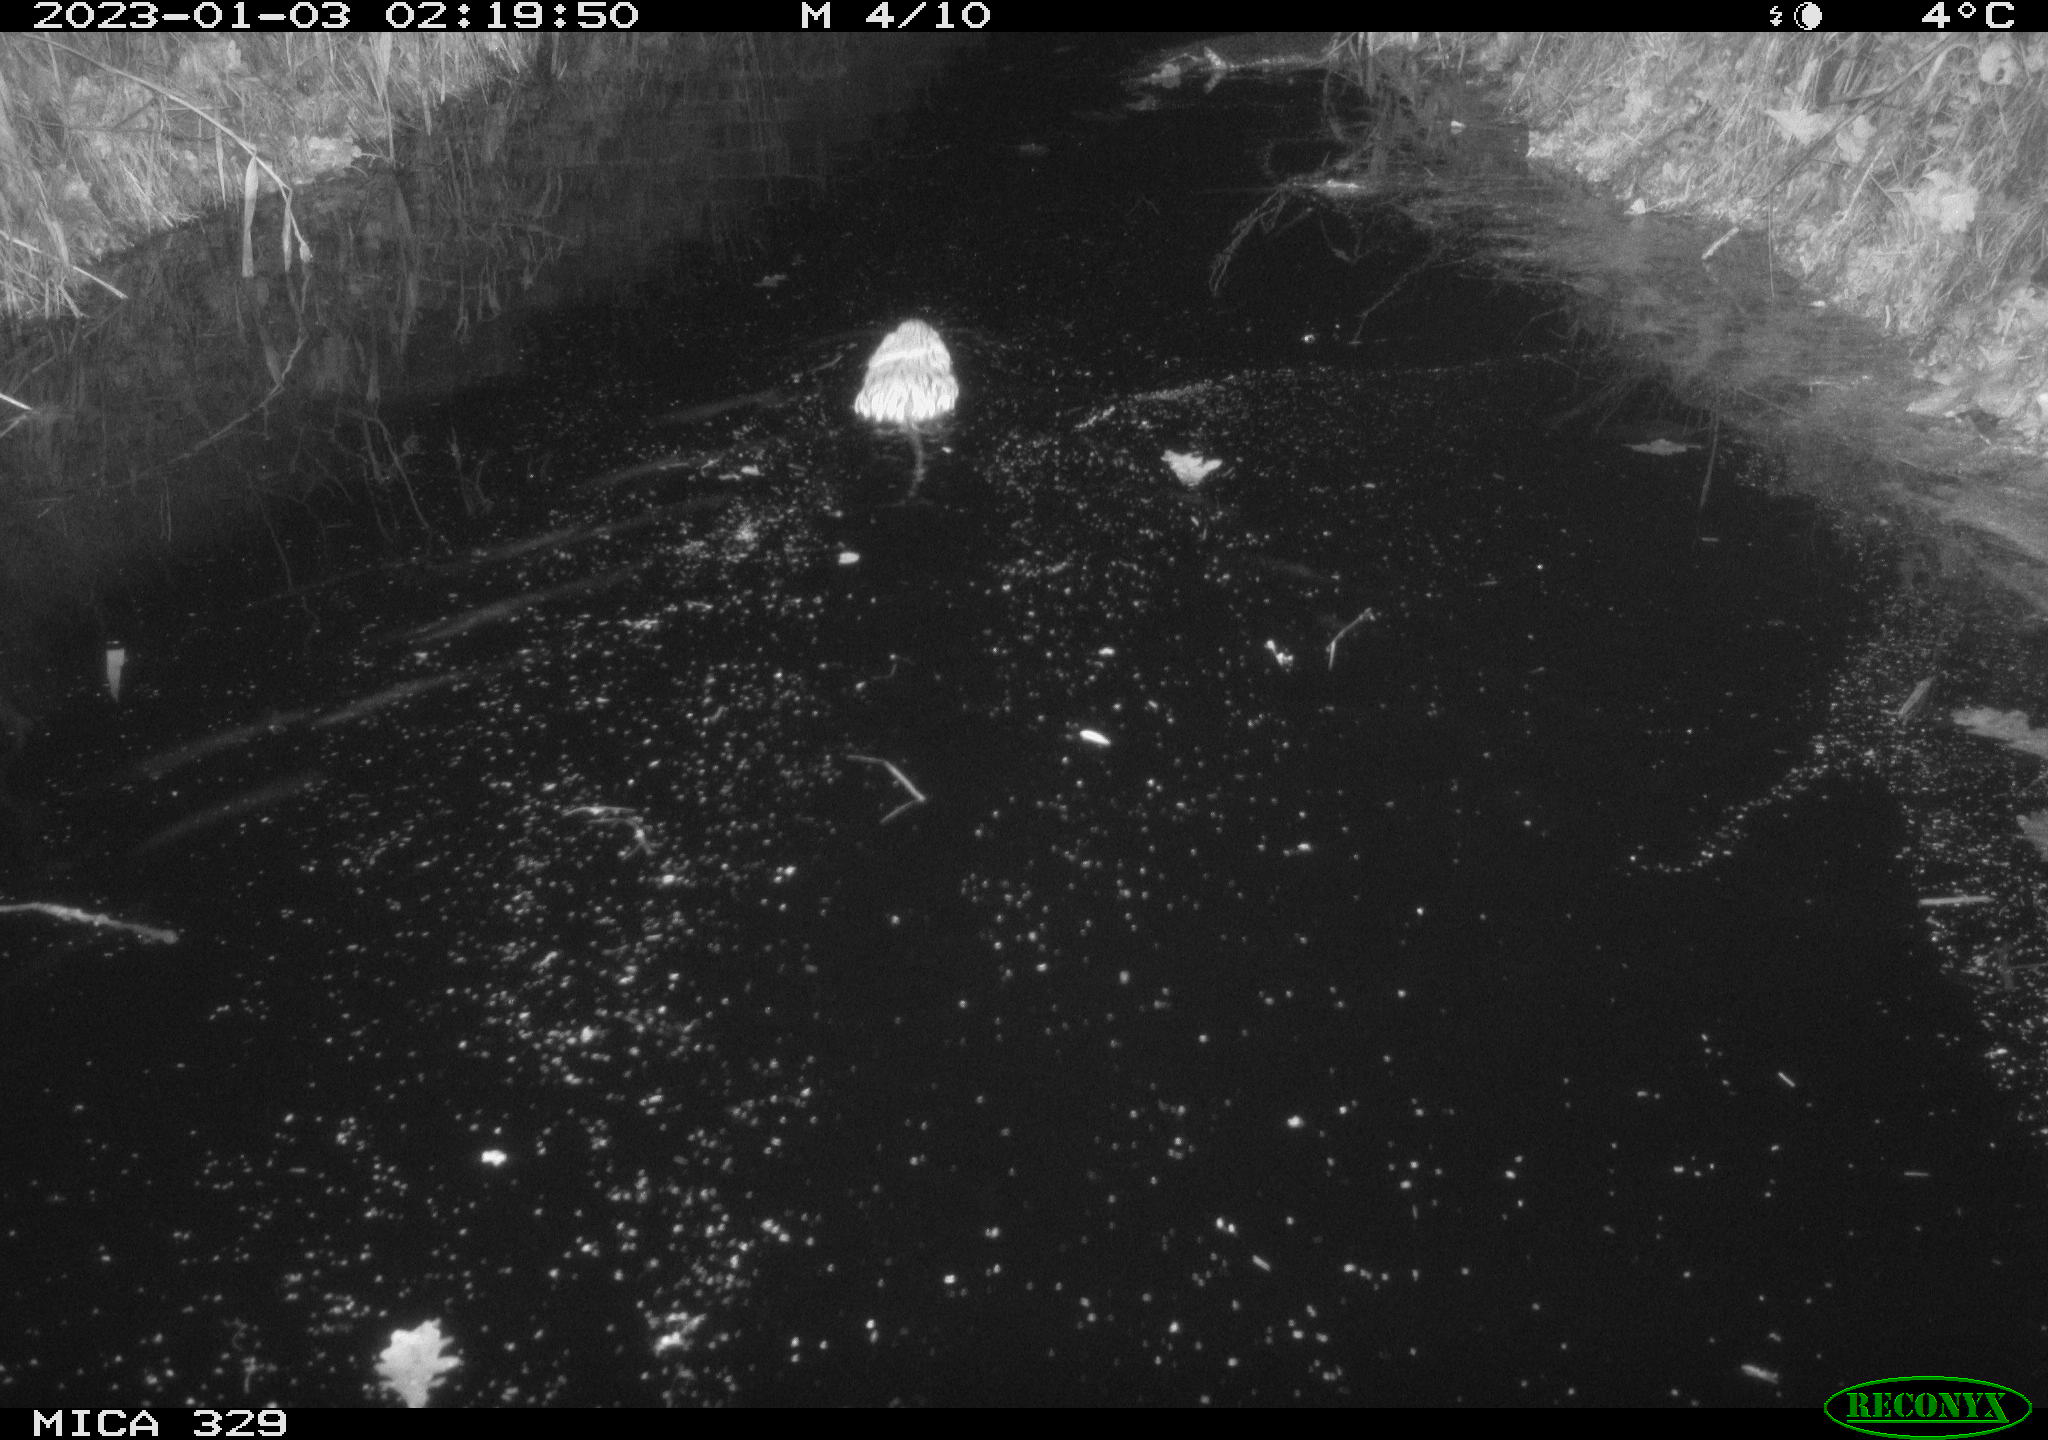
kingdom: Animalia
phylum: Chordata
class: Mammalia
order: Rodentia
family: Cricetidae
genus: Ondatra
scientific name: Ondatra zibethicus
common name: Muskrat
